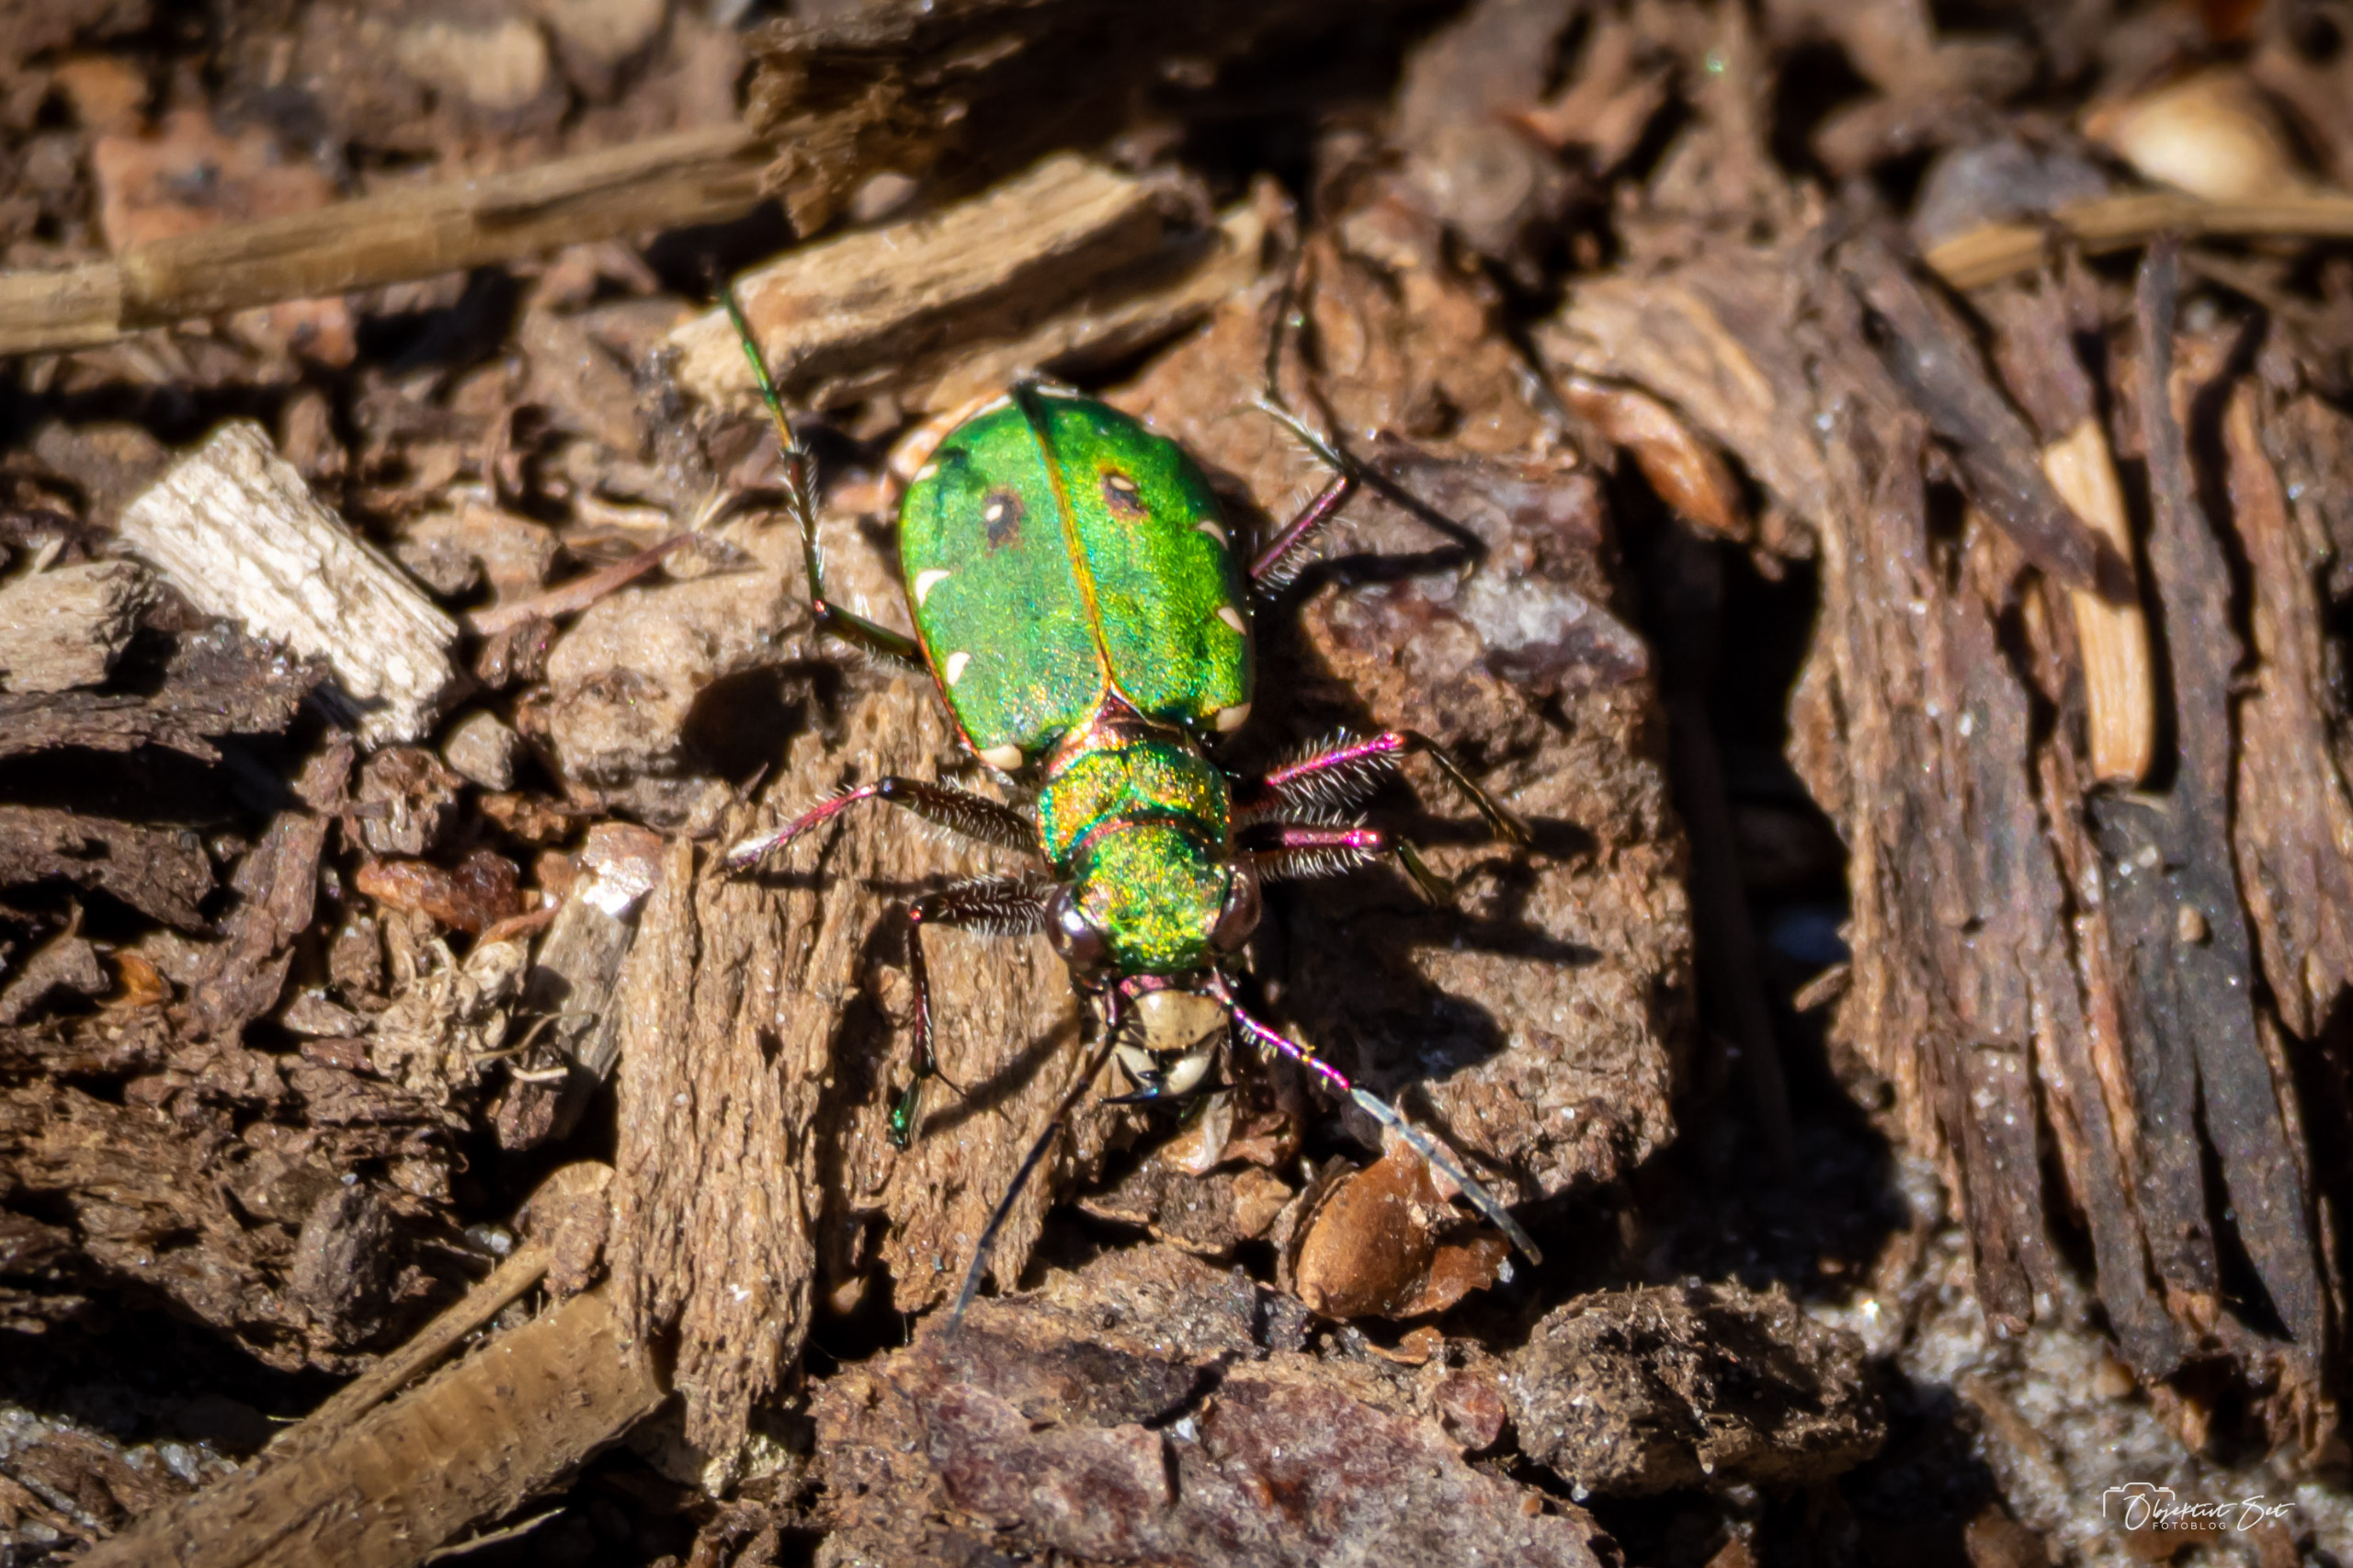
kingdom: Animalia
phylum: Arthropoda
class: Insecta
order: Coleoptera
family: Carabidae
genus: Cicindela
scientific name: Cicindela campestris
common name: Grøn sandspringer
